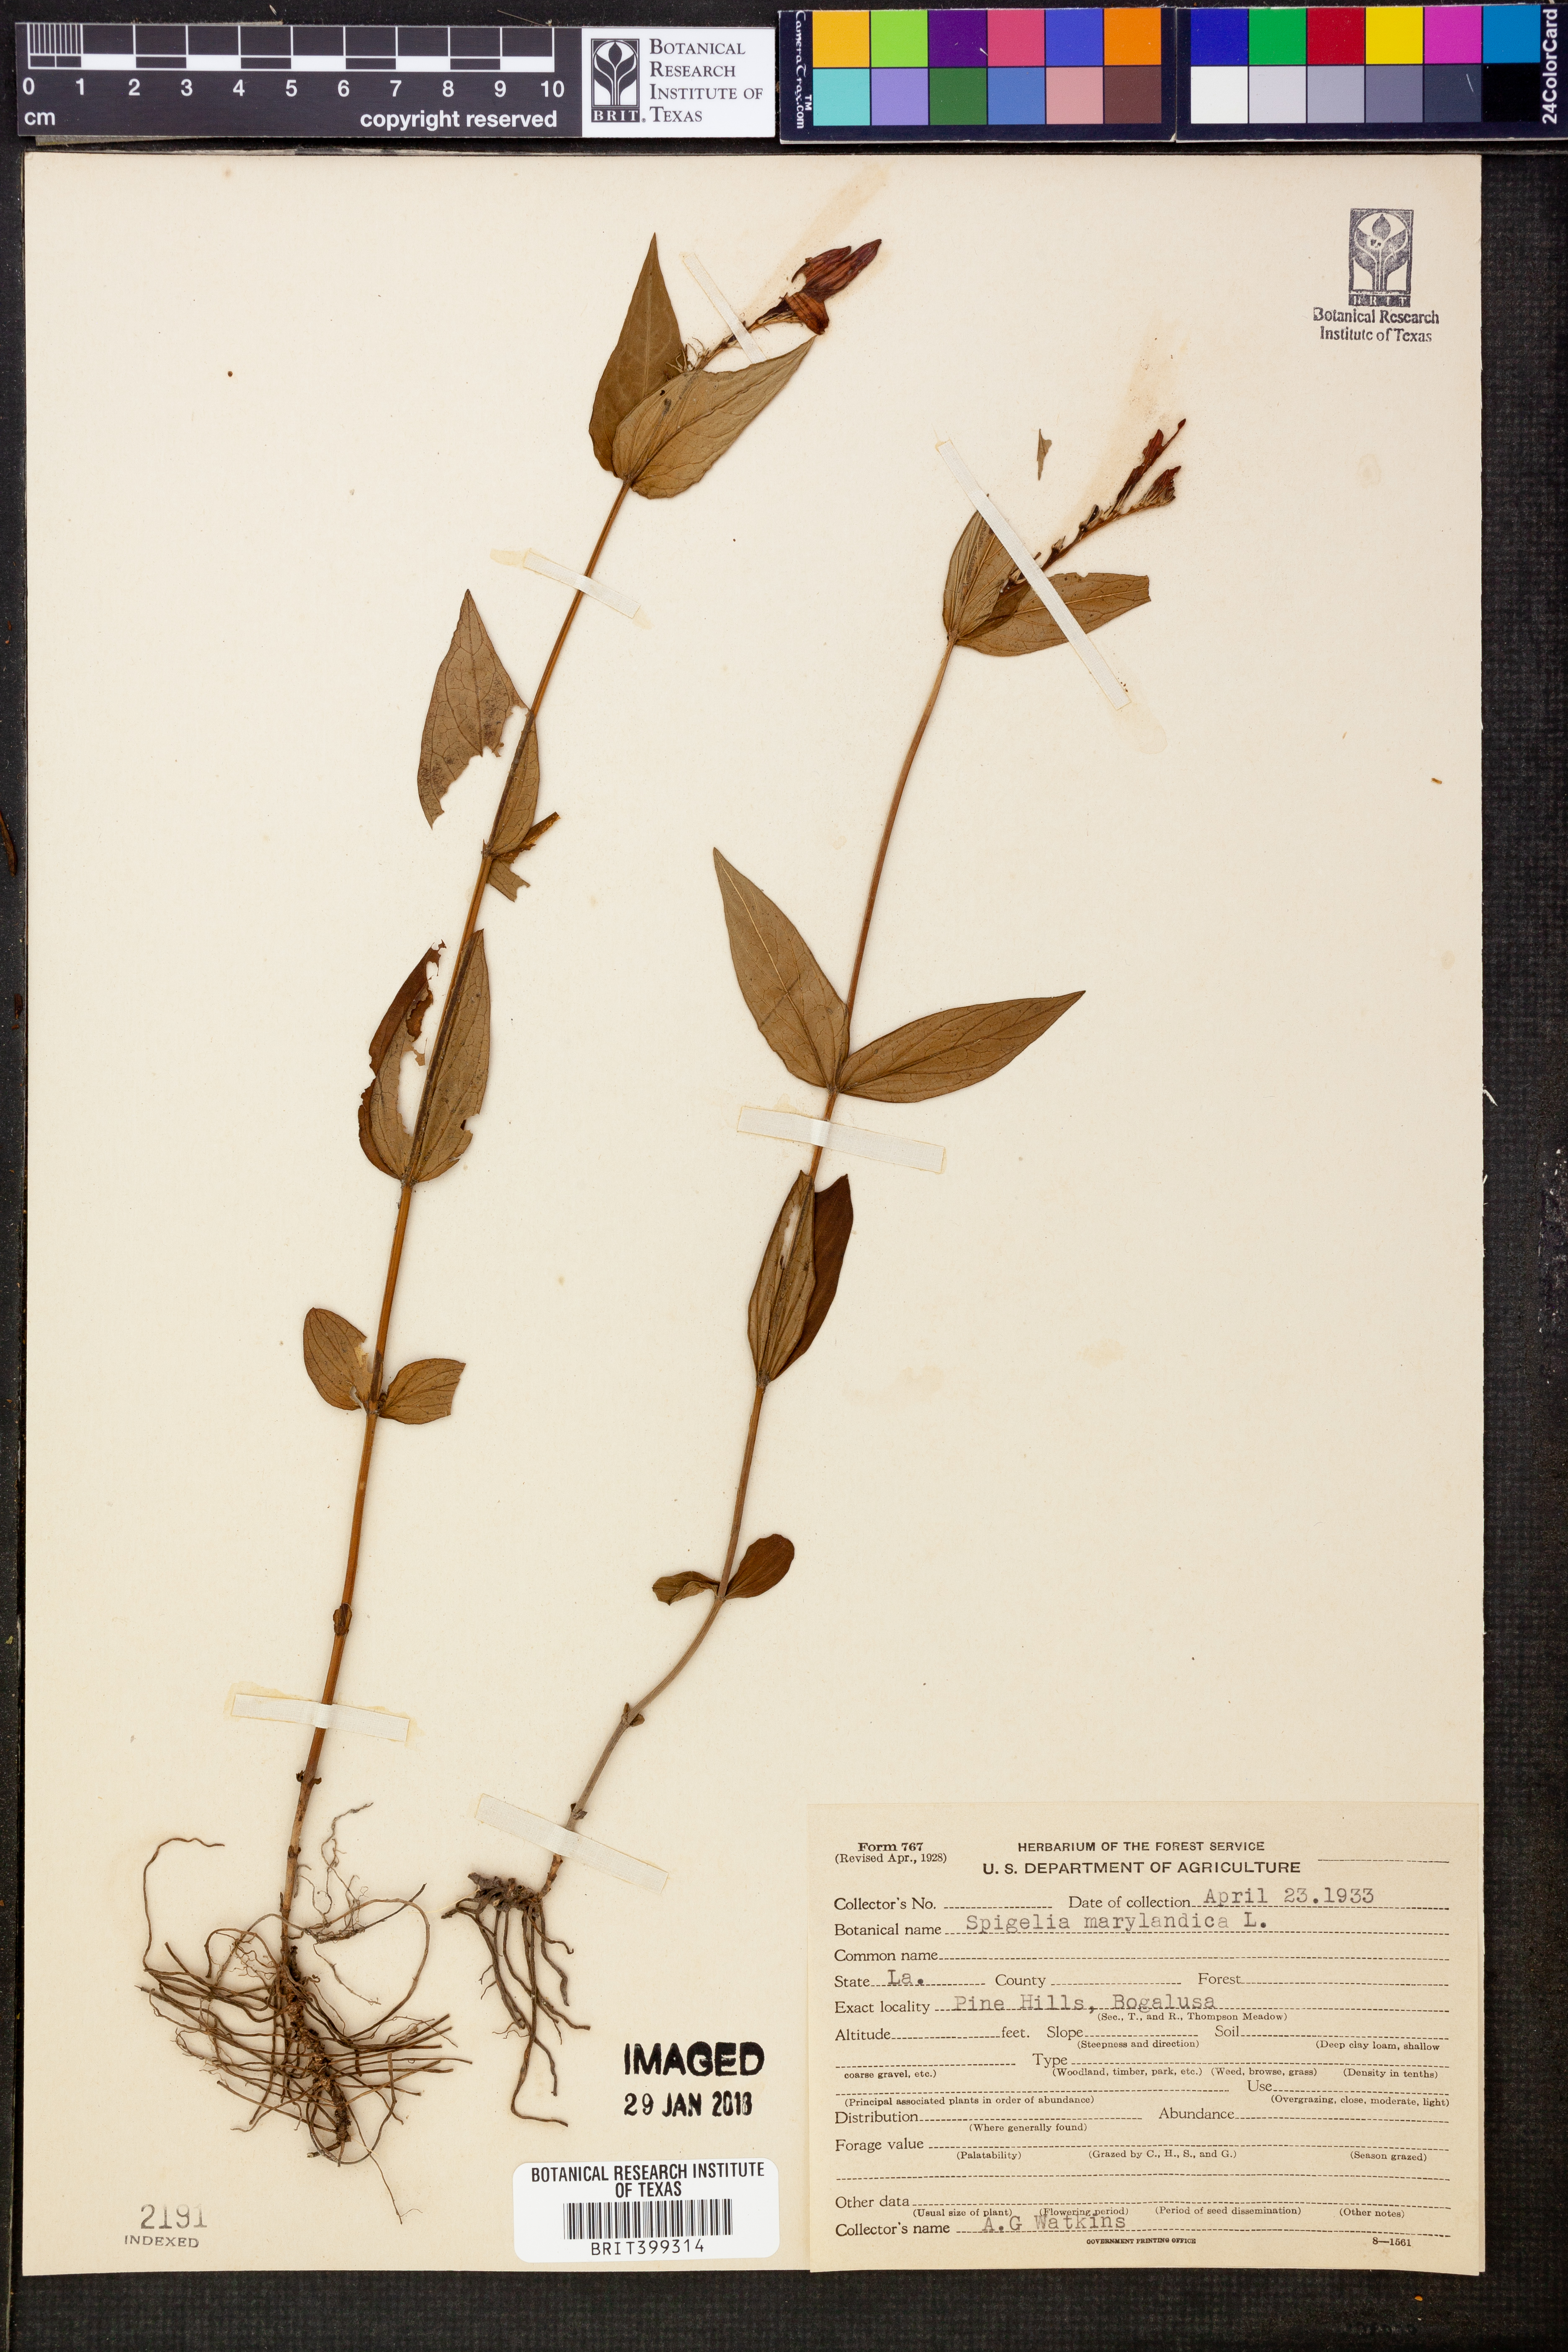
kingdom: Plantae
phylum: Tracheophyta
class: Magnoliopsida
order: Gentianales
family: Loganiaceae
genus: Spigelia
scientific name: Spigelia marilandica
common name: Indian-pink
